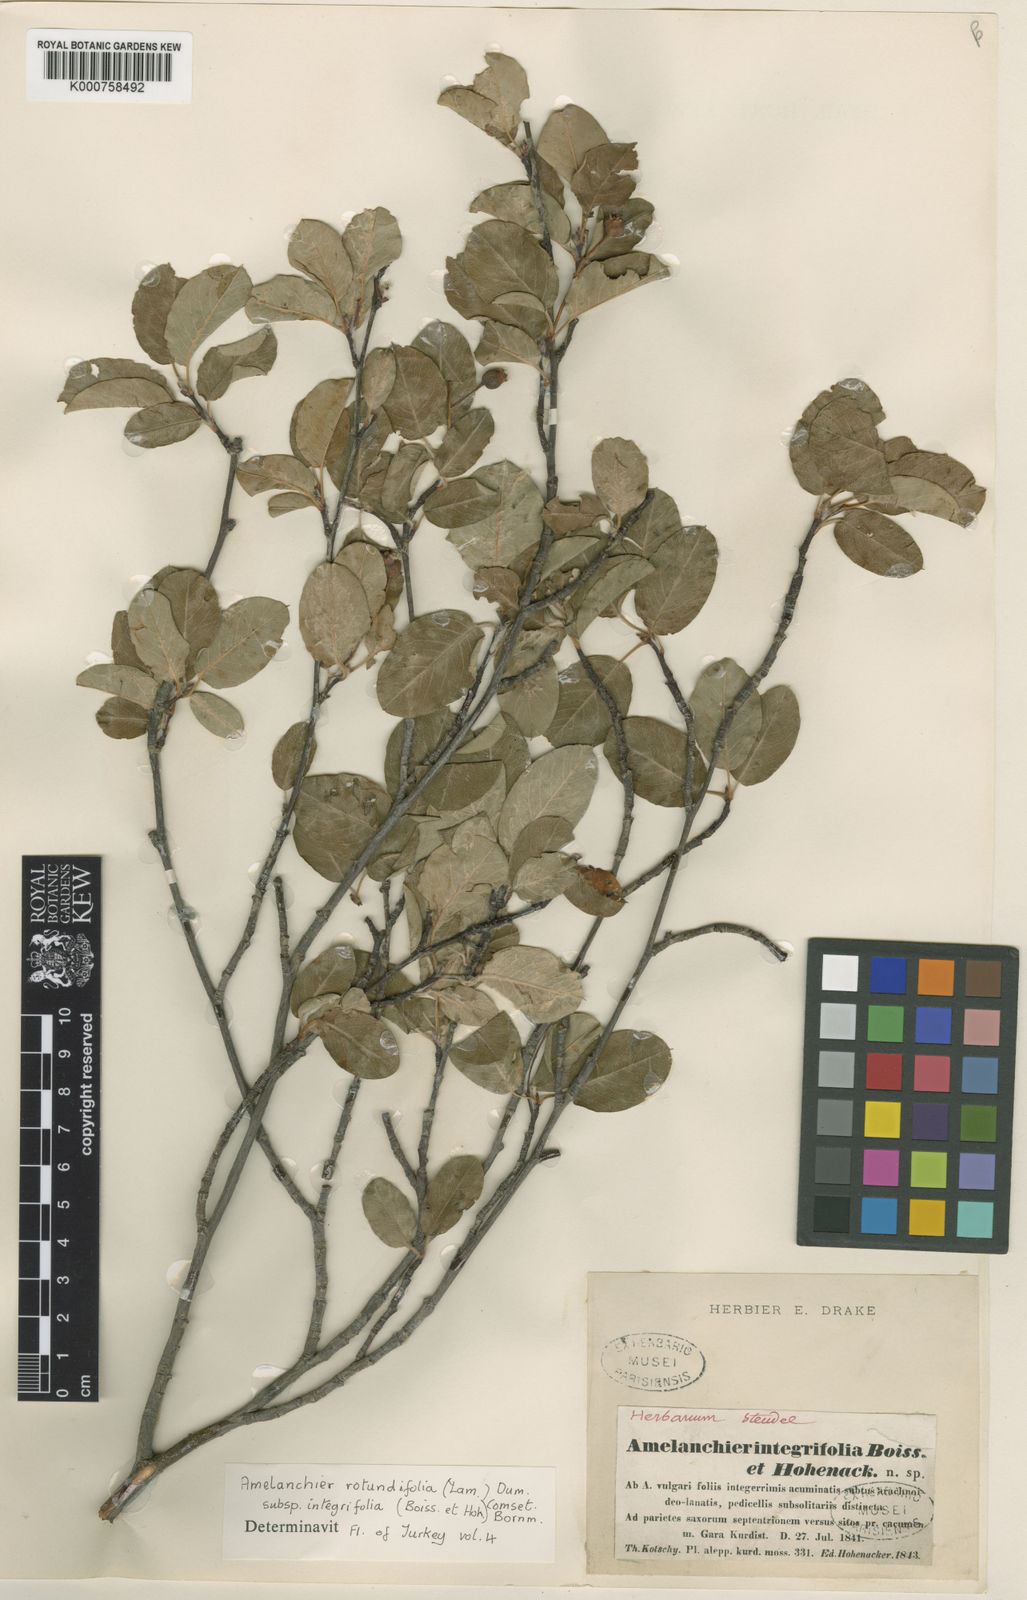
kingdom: Plantae
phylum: Tracheophyta
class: Magnoliopsida
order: Rosales
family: Rosaceae
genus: Amelanchier
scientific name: Amelanchier ovalis
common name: Serviceberry
